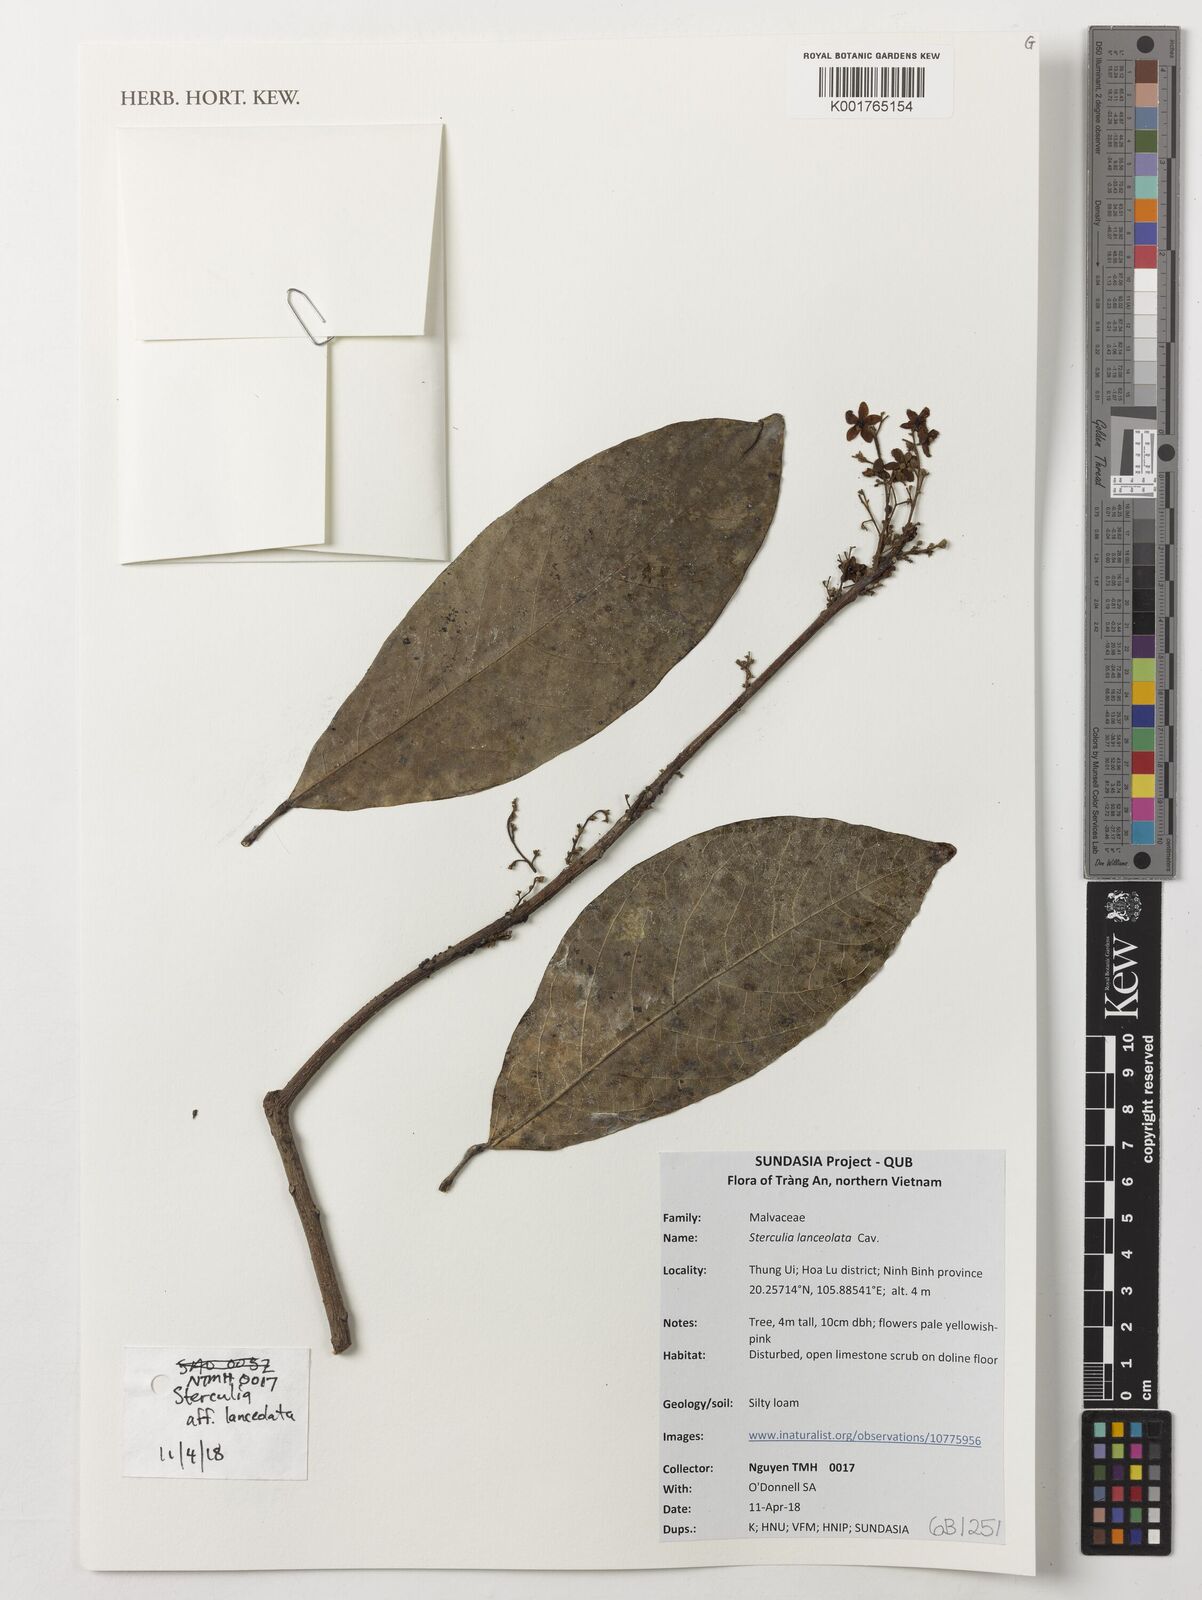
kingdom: Plantae
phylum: Tracheophyta
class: Magnoliopsida
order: Malvales
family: Malvaceae
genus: Sterculia
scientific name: Sterculia lanceolata
